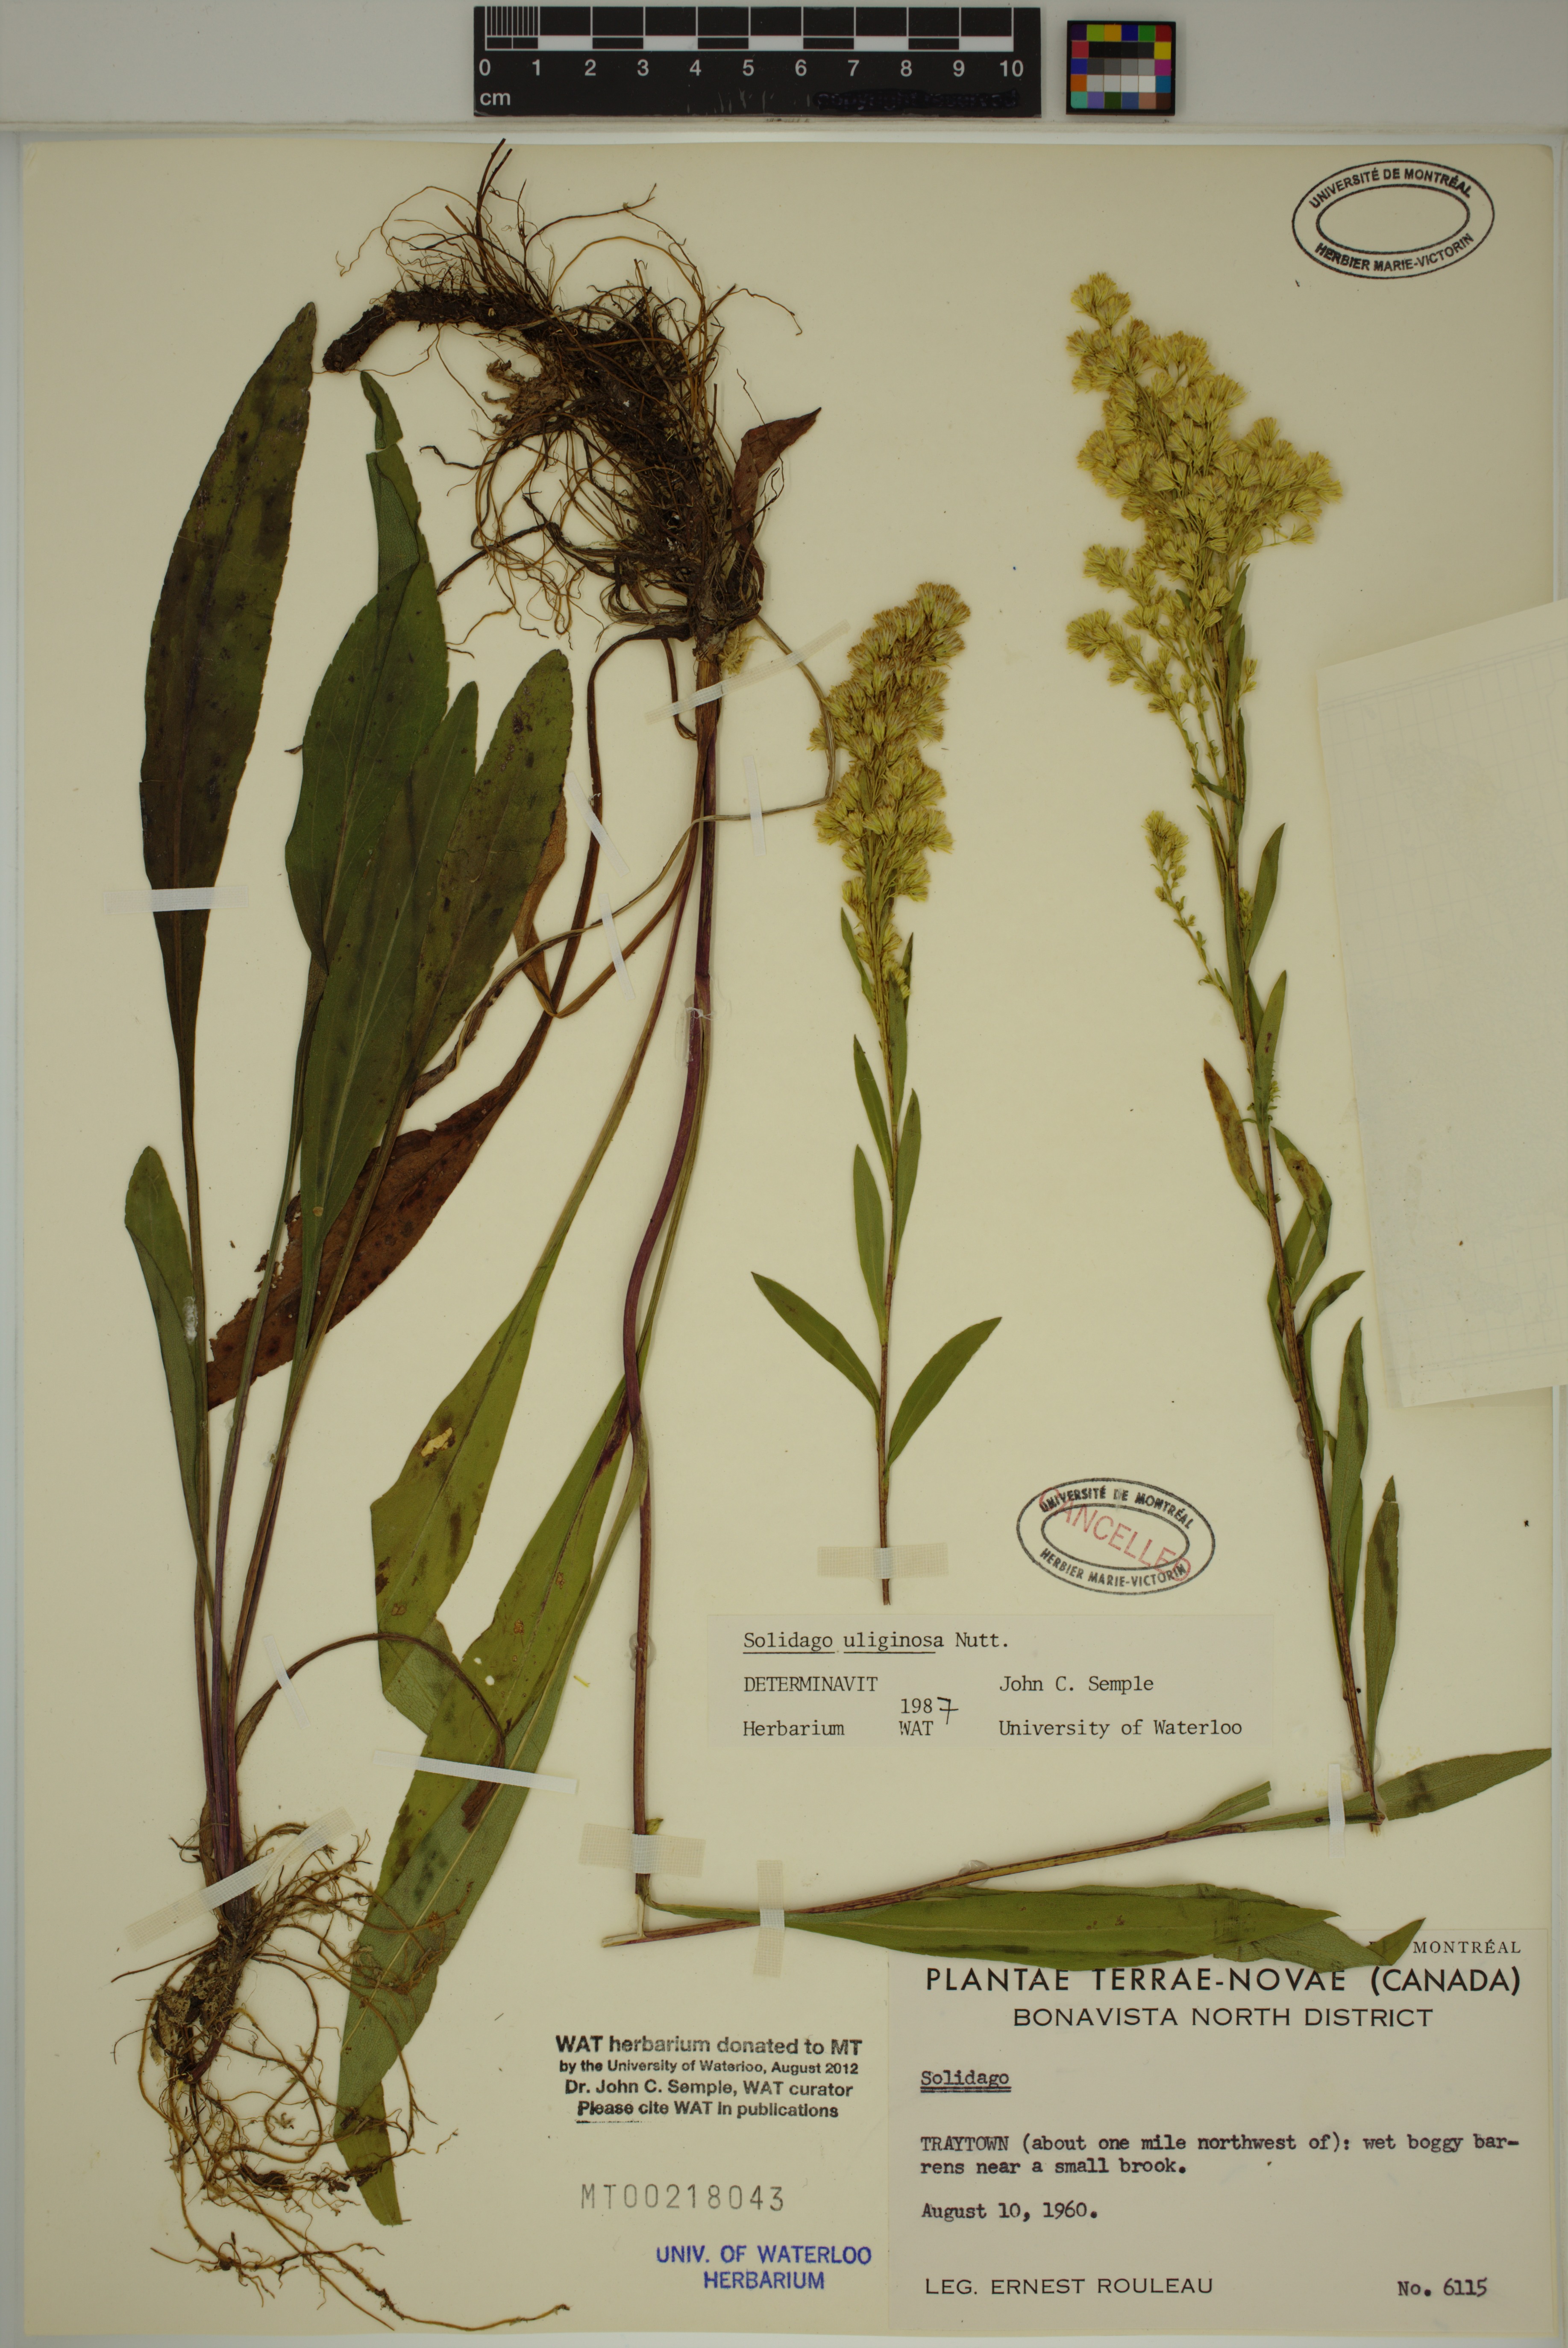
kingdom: Plantae
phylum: Tracheophyta
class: Magnoliopsida
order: Asterales
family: Asteraceae
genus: Solidago
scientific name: Solidago uliginosa
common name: Bog goldenrod
